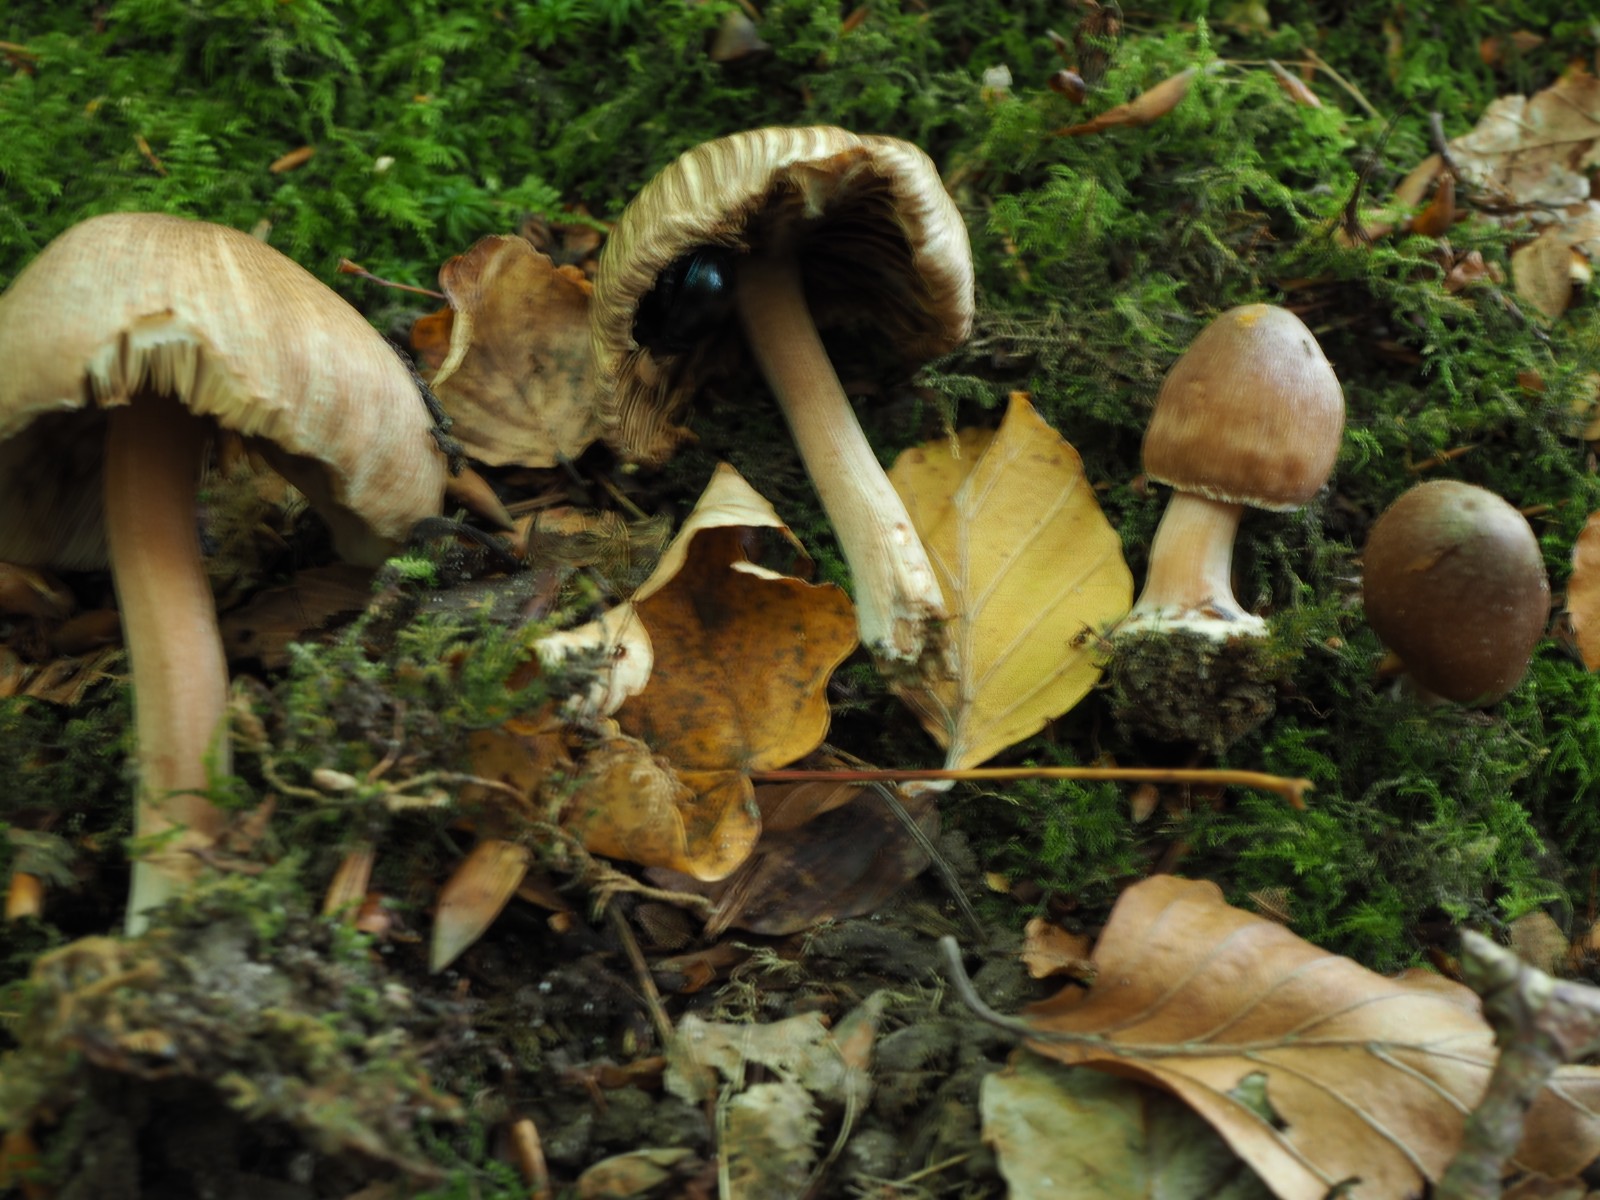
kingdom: Fungi
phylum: Basidiomycota
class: Agaricomycetes
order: Agaricales
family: Inocybaceae
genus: Inocybe
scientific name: Inocybe asterospora
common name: stjernesporet trævlhat
